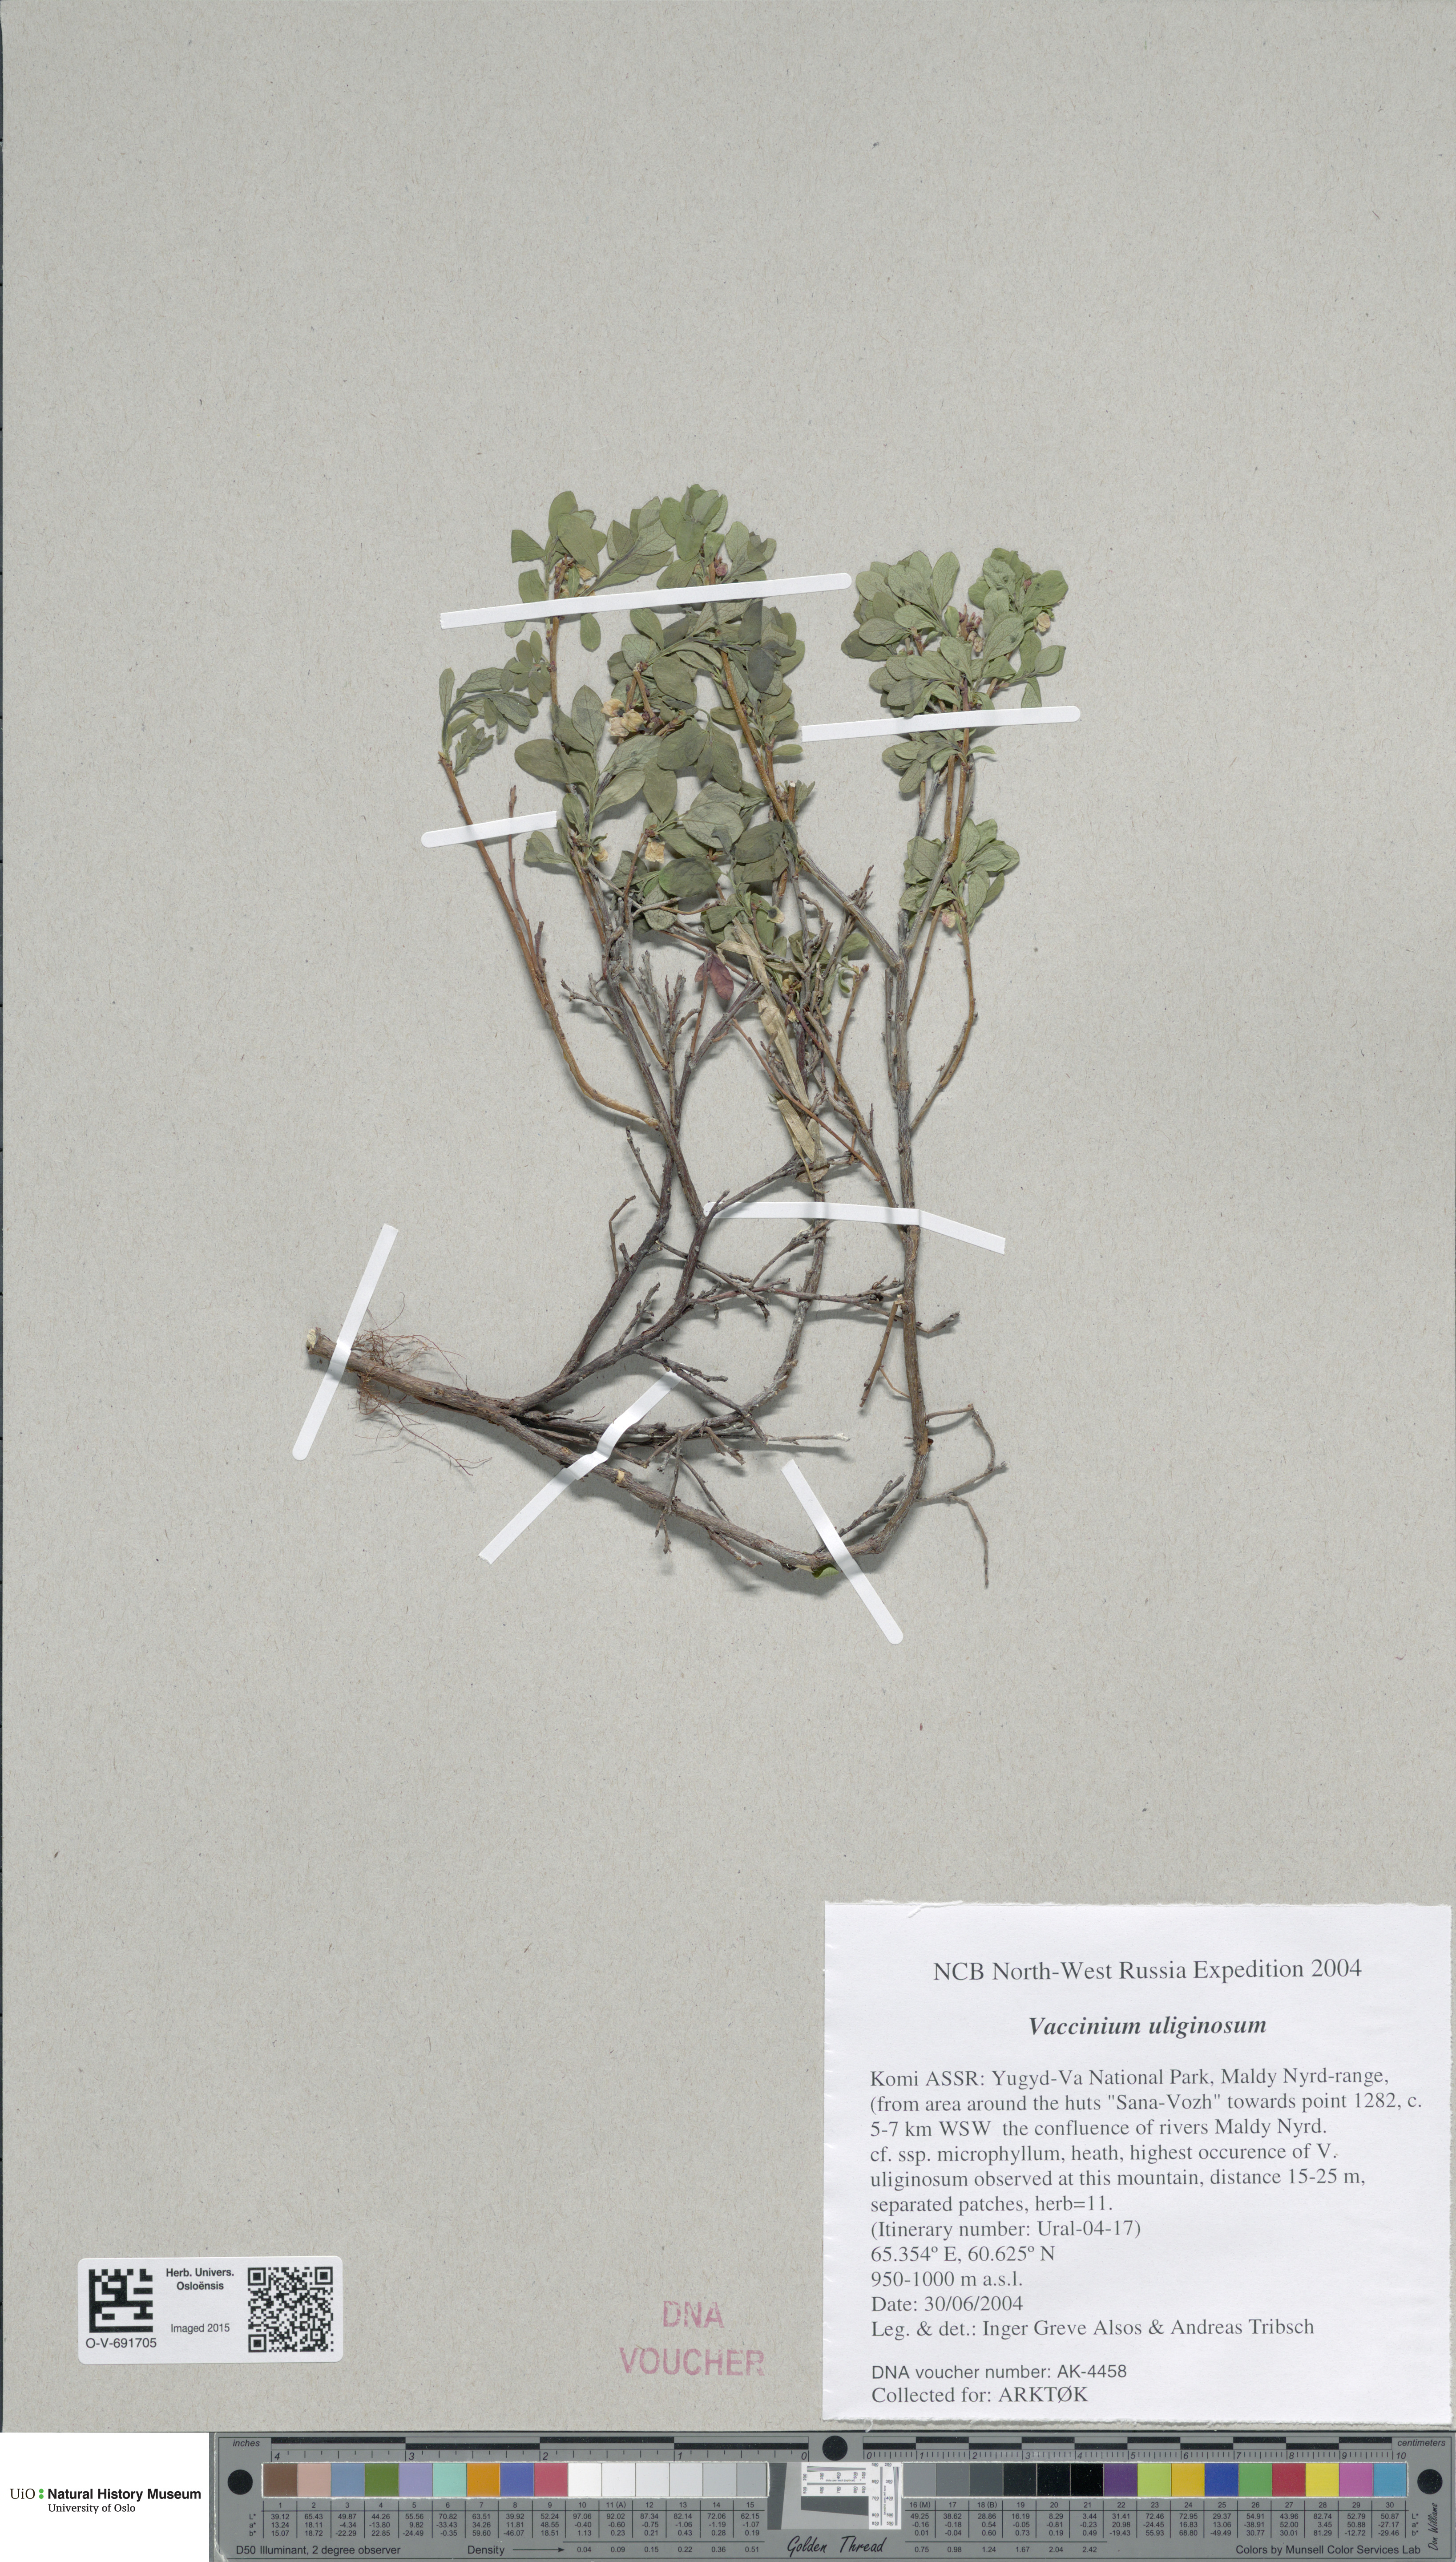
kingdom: Plantae
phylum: Tracheophyta
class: Magnoliopsida
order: Ericales
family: Ericaceae
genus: Vaccinium
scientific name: Vaccinium uliginosum
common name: Bog bilberry
